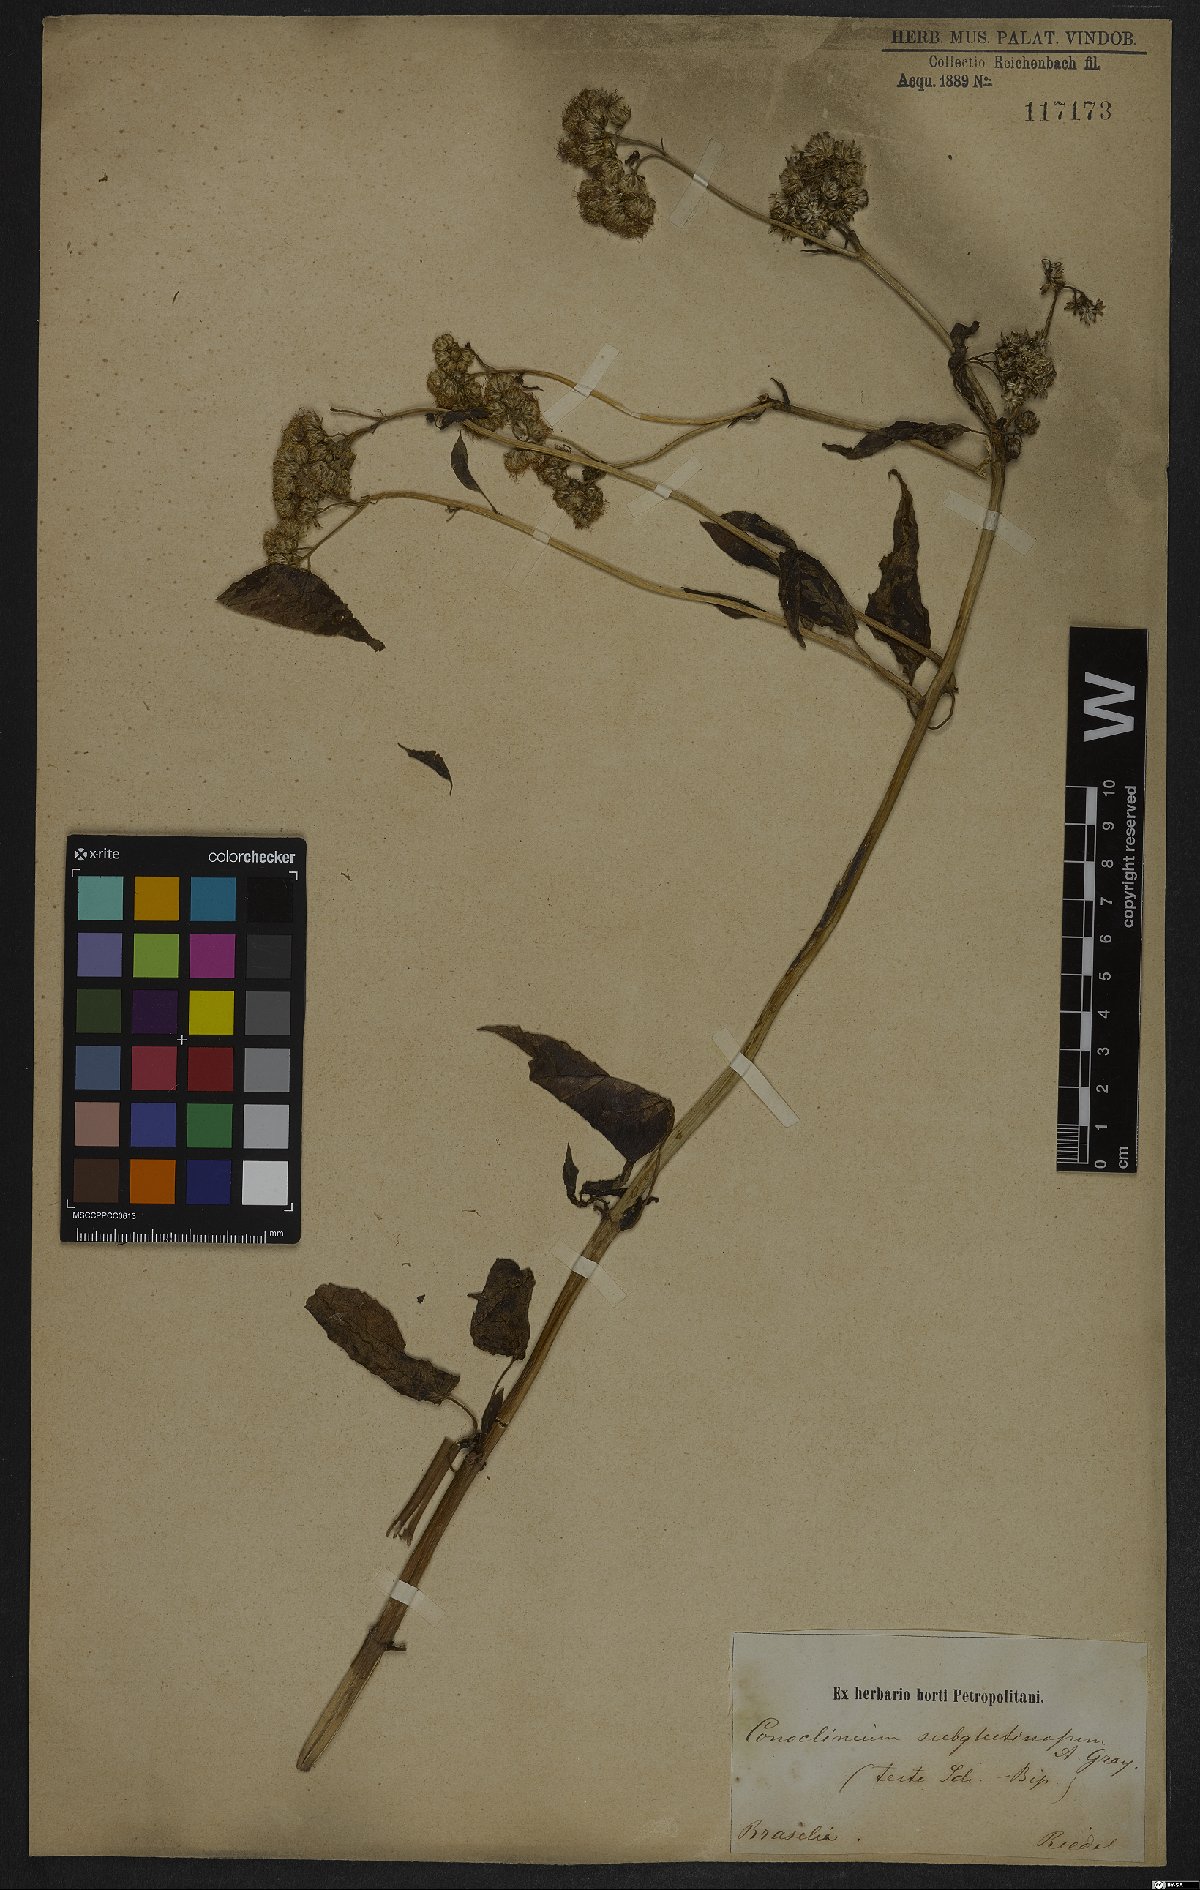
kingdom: Plantae
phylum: Tracheophyta
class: Magnoliopsida
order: Asterales
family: Asteraceae
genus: Barrosoa
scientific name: Barrosoa apiculata
